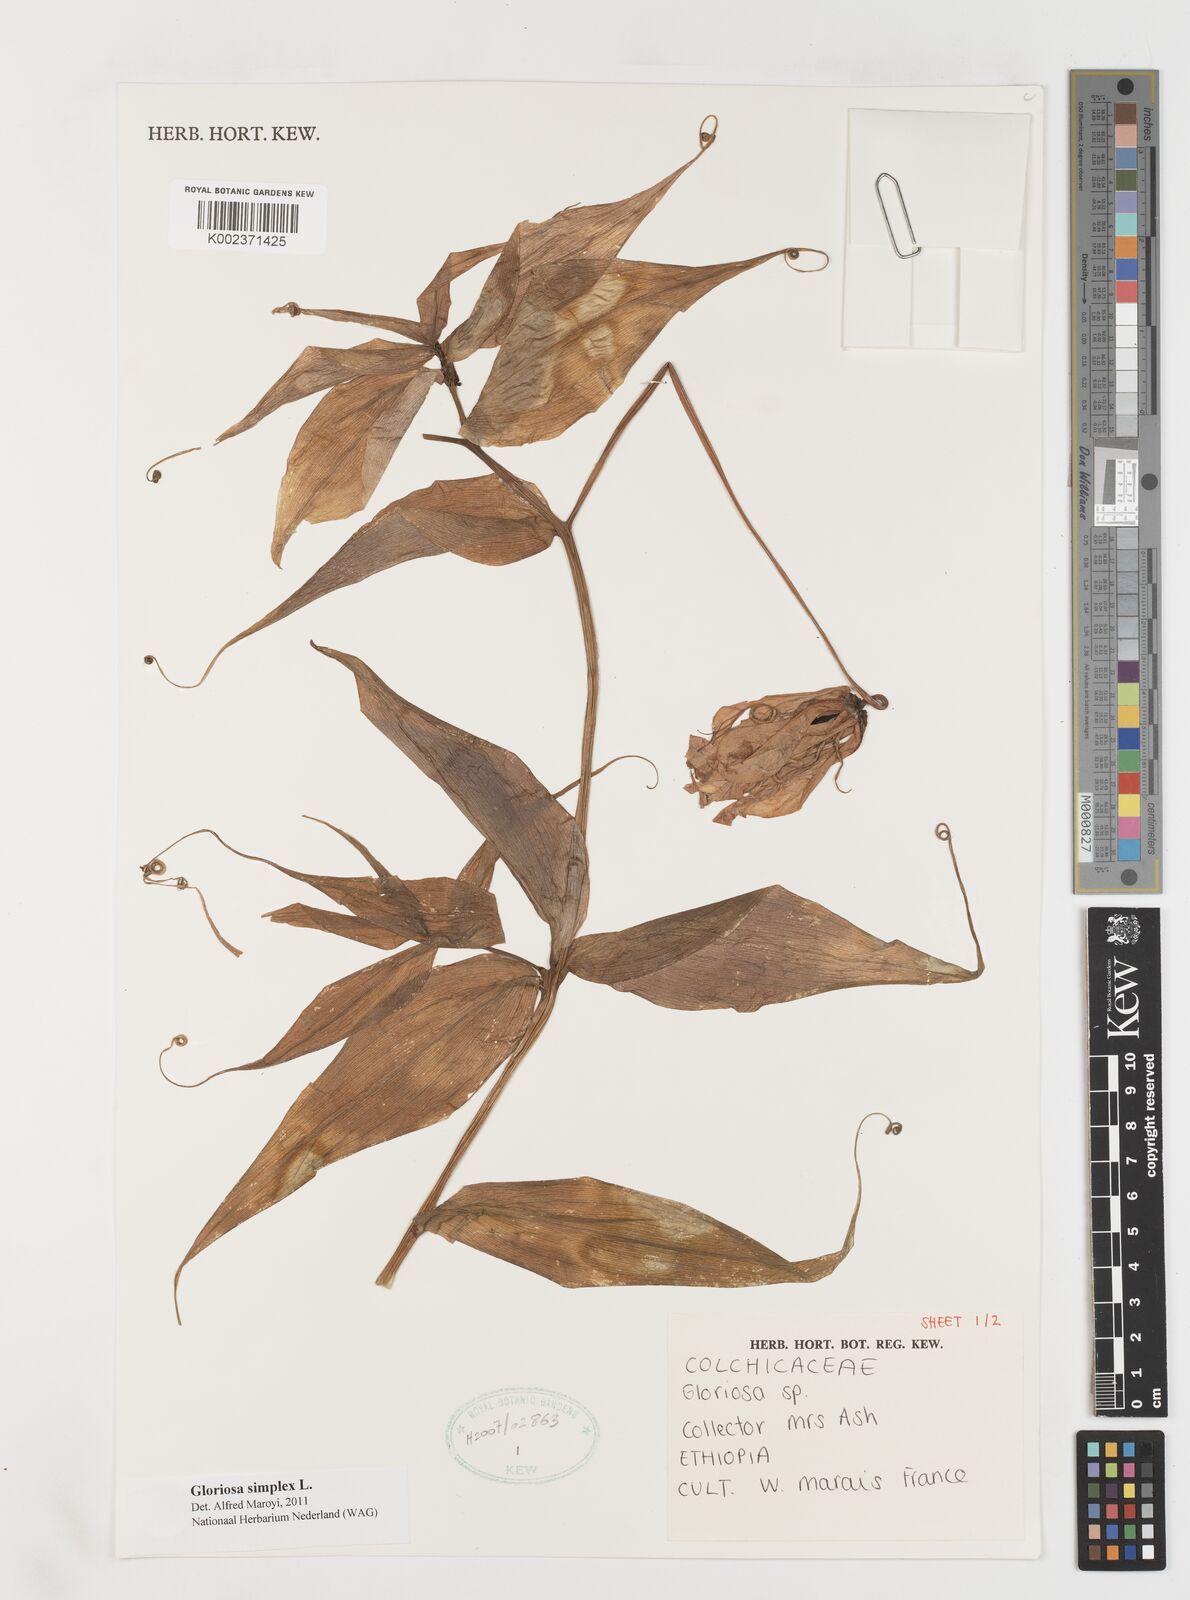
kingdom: Plantae
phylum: Tracheophyta
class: Liliopsida
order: Liliales
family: Colchicaceae
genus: Gloriosa
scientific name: Gloriosa simplex
